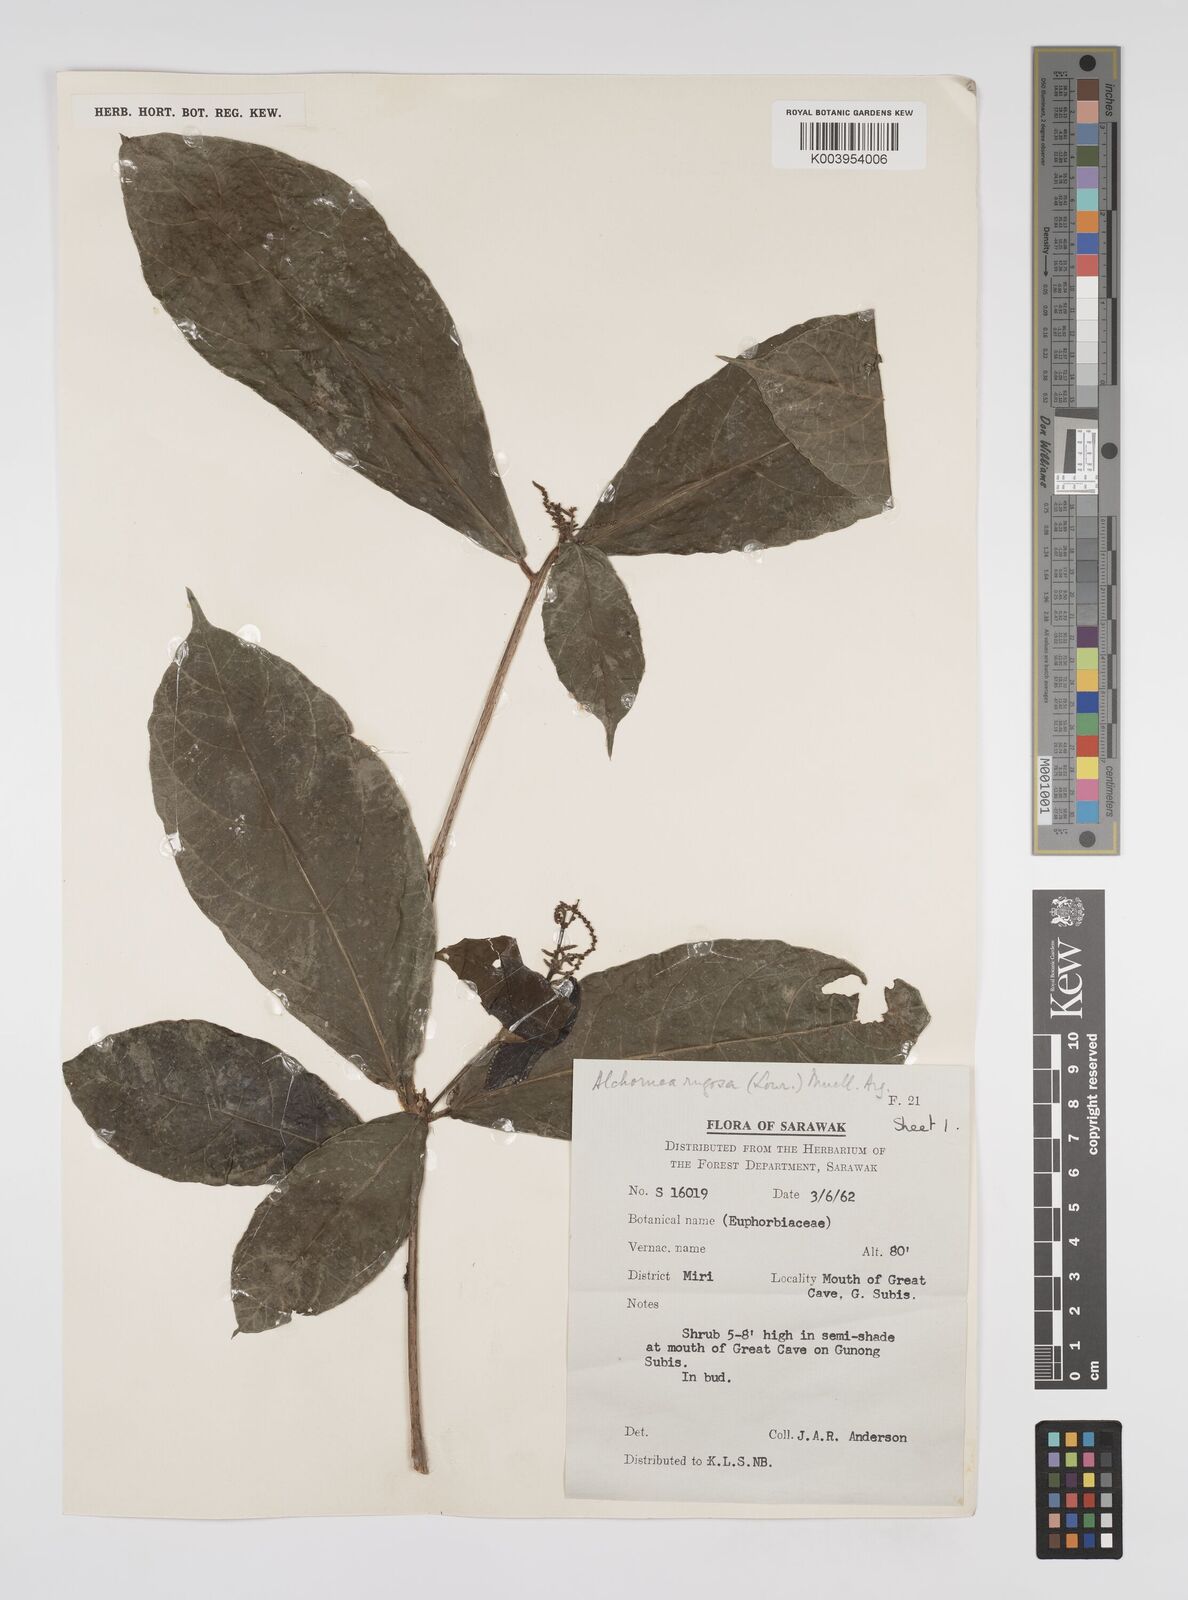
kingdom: Plantae
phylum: Tracheophyta
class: Magnoliopsida
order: Malpighiales
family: Euphorbiaceae
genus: Alchornea
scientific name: Alchornea rugosa
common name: Alchorntree
